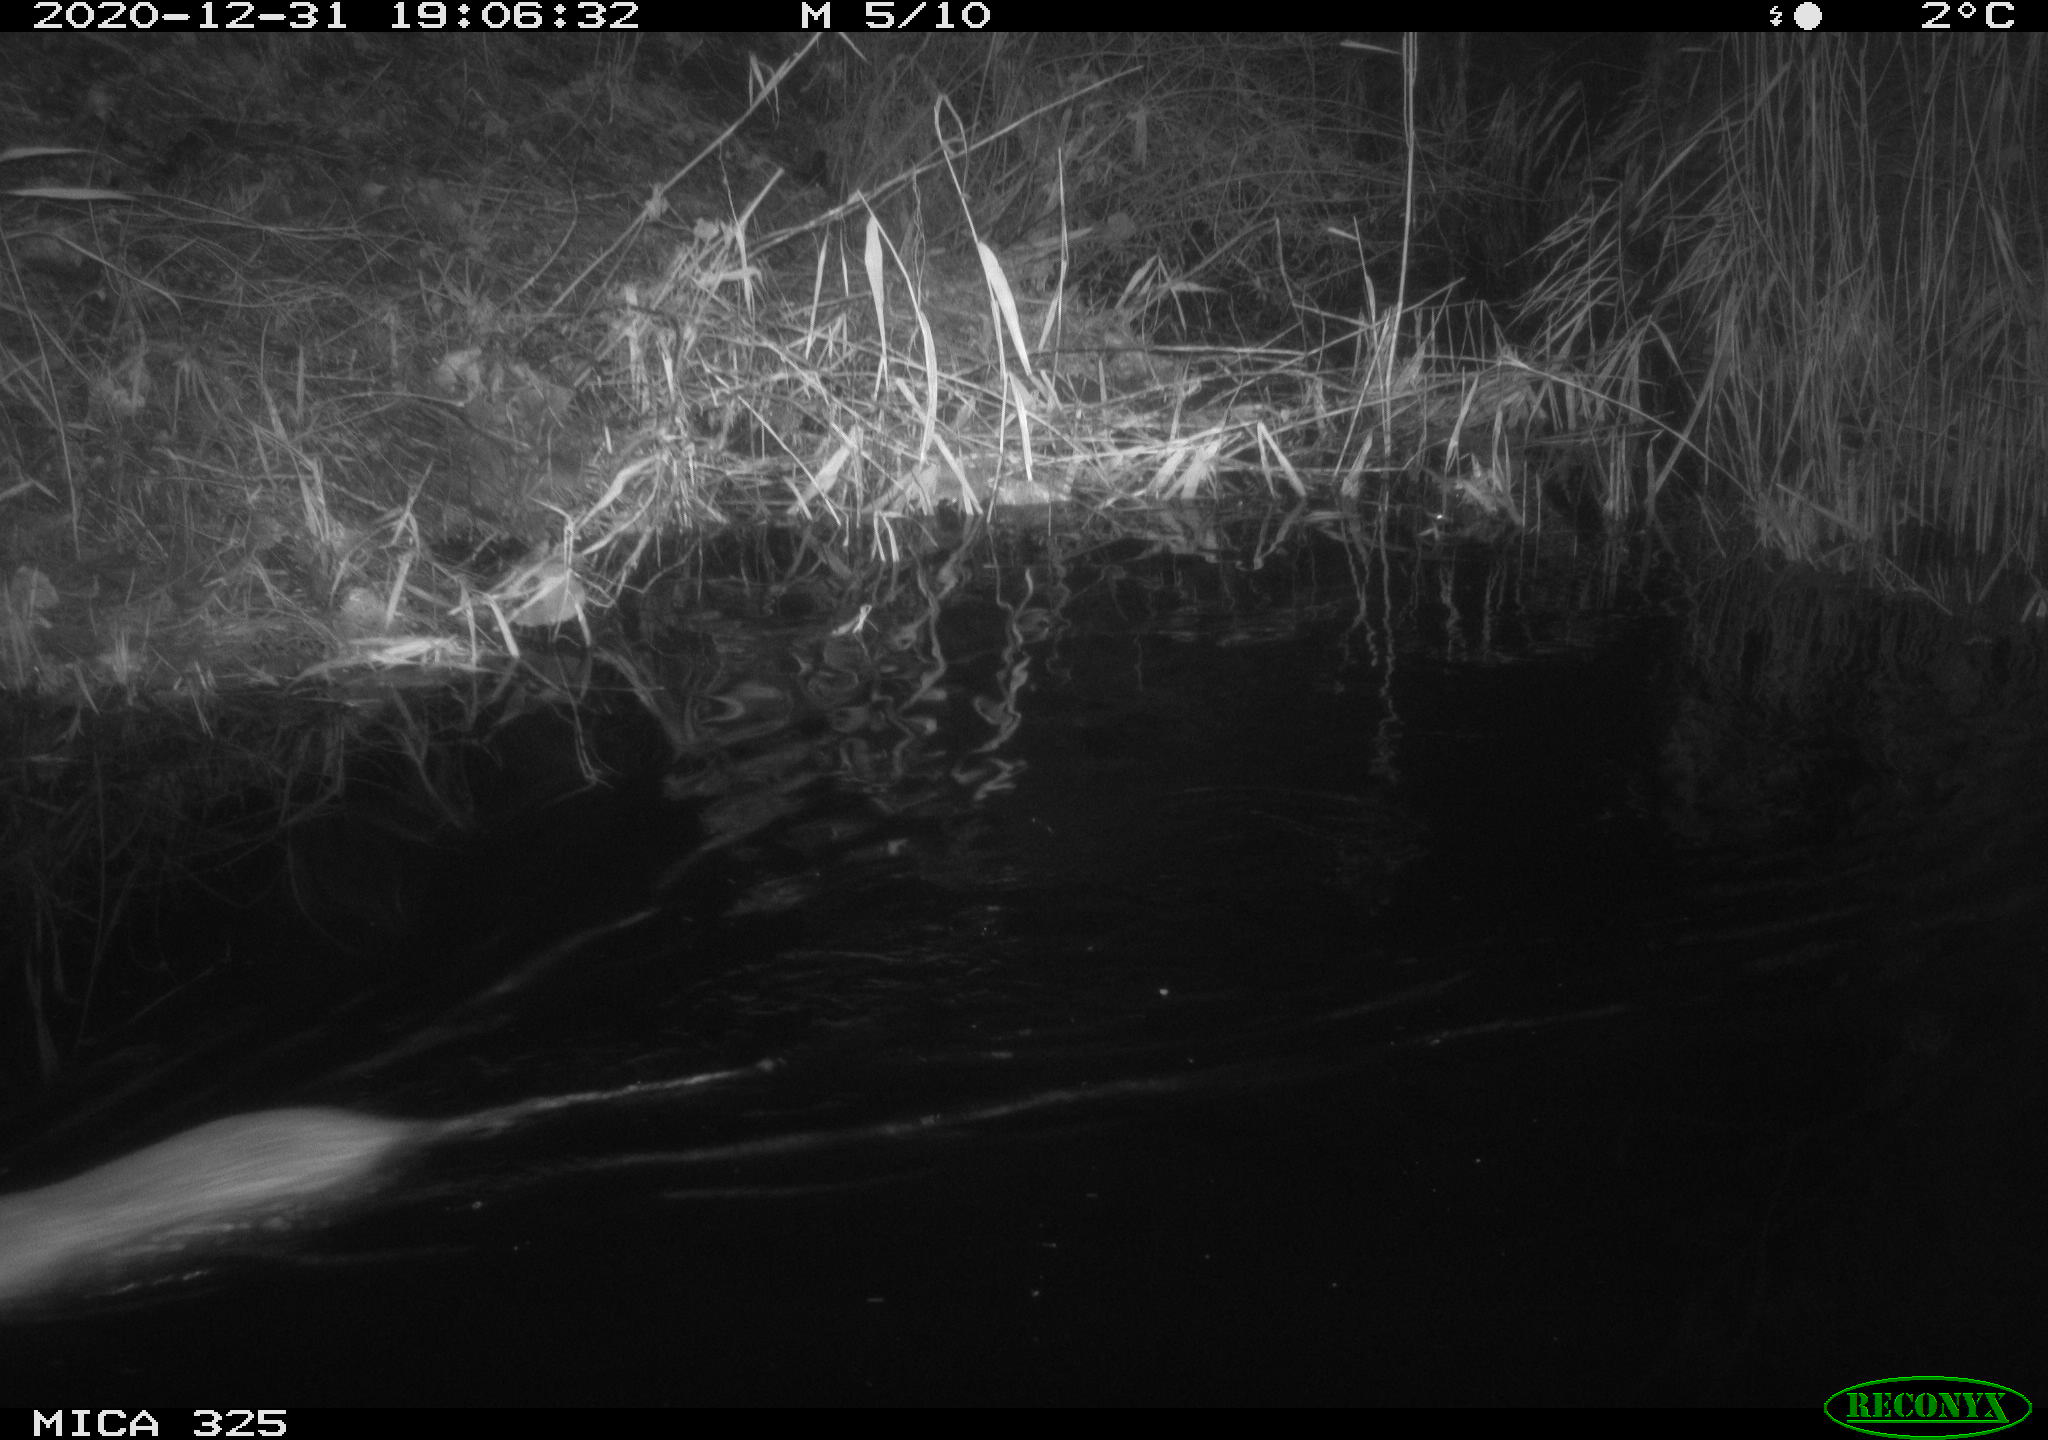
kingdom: Animalia
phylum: Chordata
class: Mammalia
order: Rodentia
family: Myocastoridae
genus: Myocastor
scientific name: Myocastor coypus
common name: Coypu
